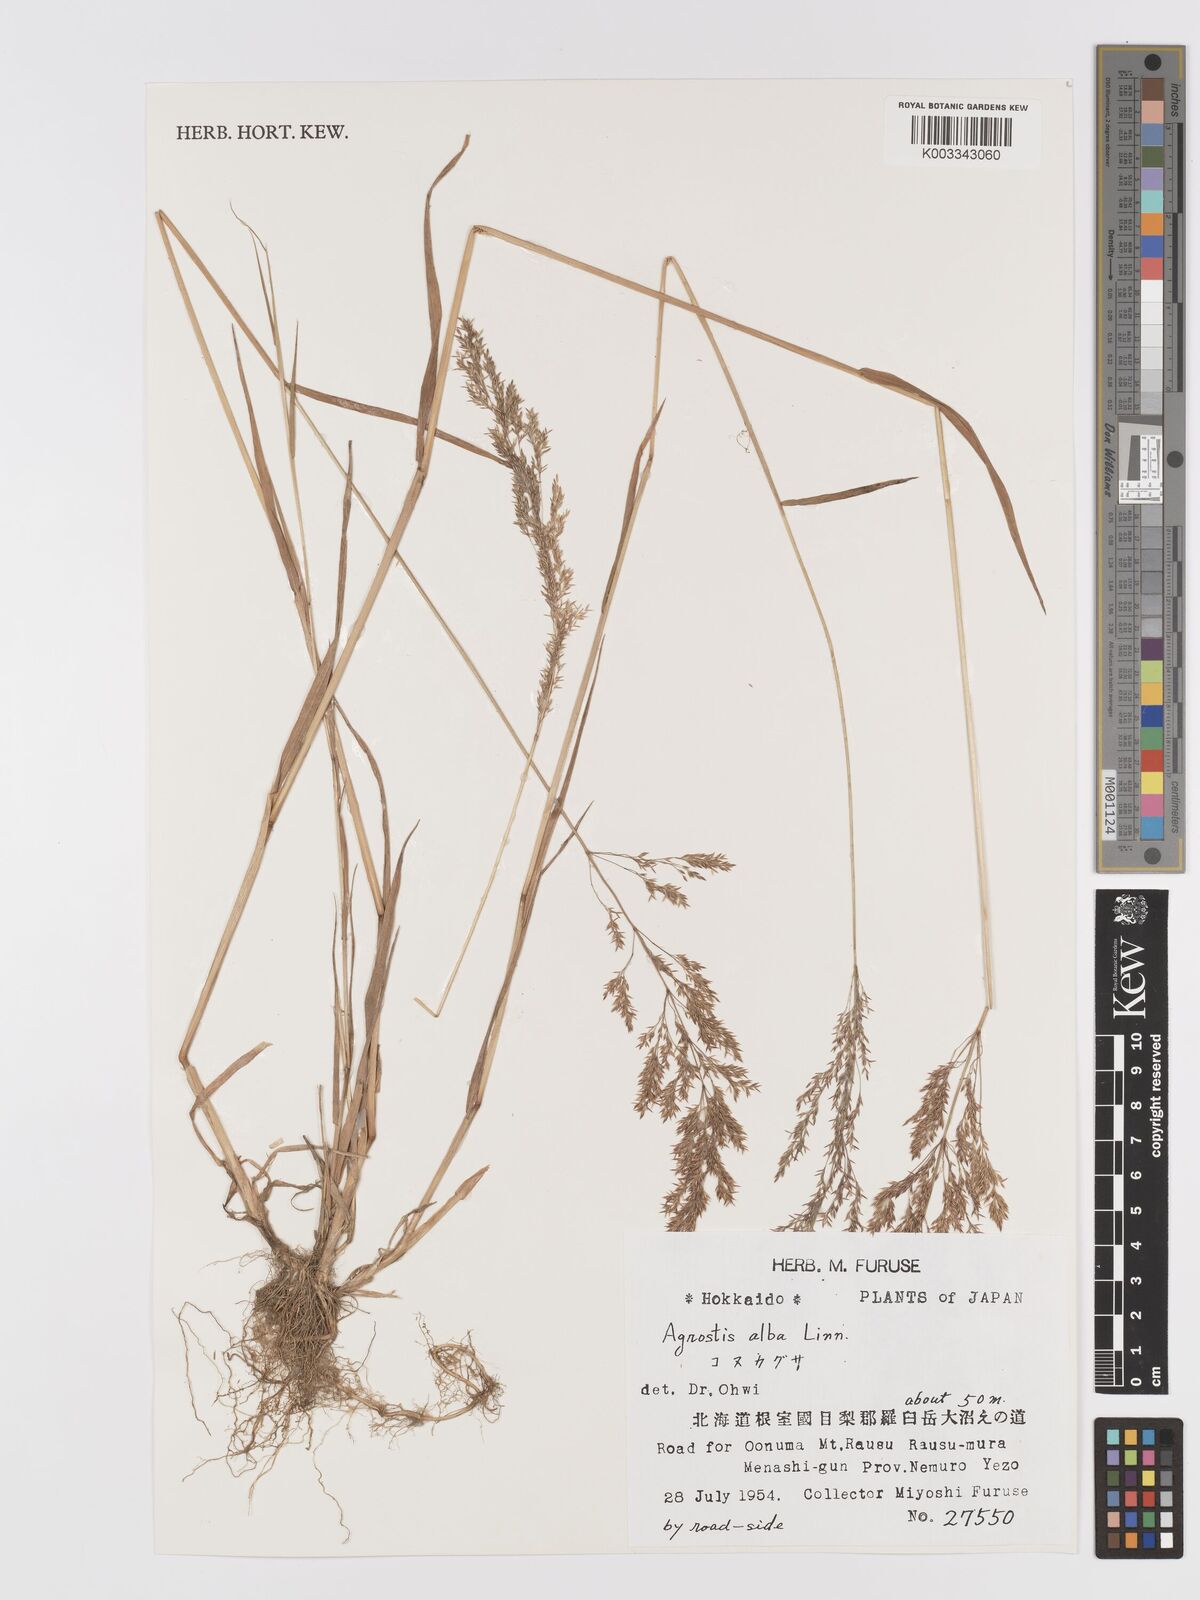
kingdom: Plantae
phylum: Tracheophyta
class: Liliopsida
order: Poales
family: Poaceae
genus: Agrostis
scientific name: Agrostis gigantea
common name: Black bent
